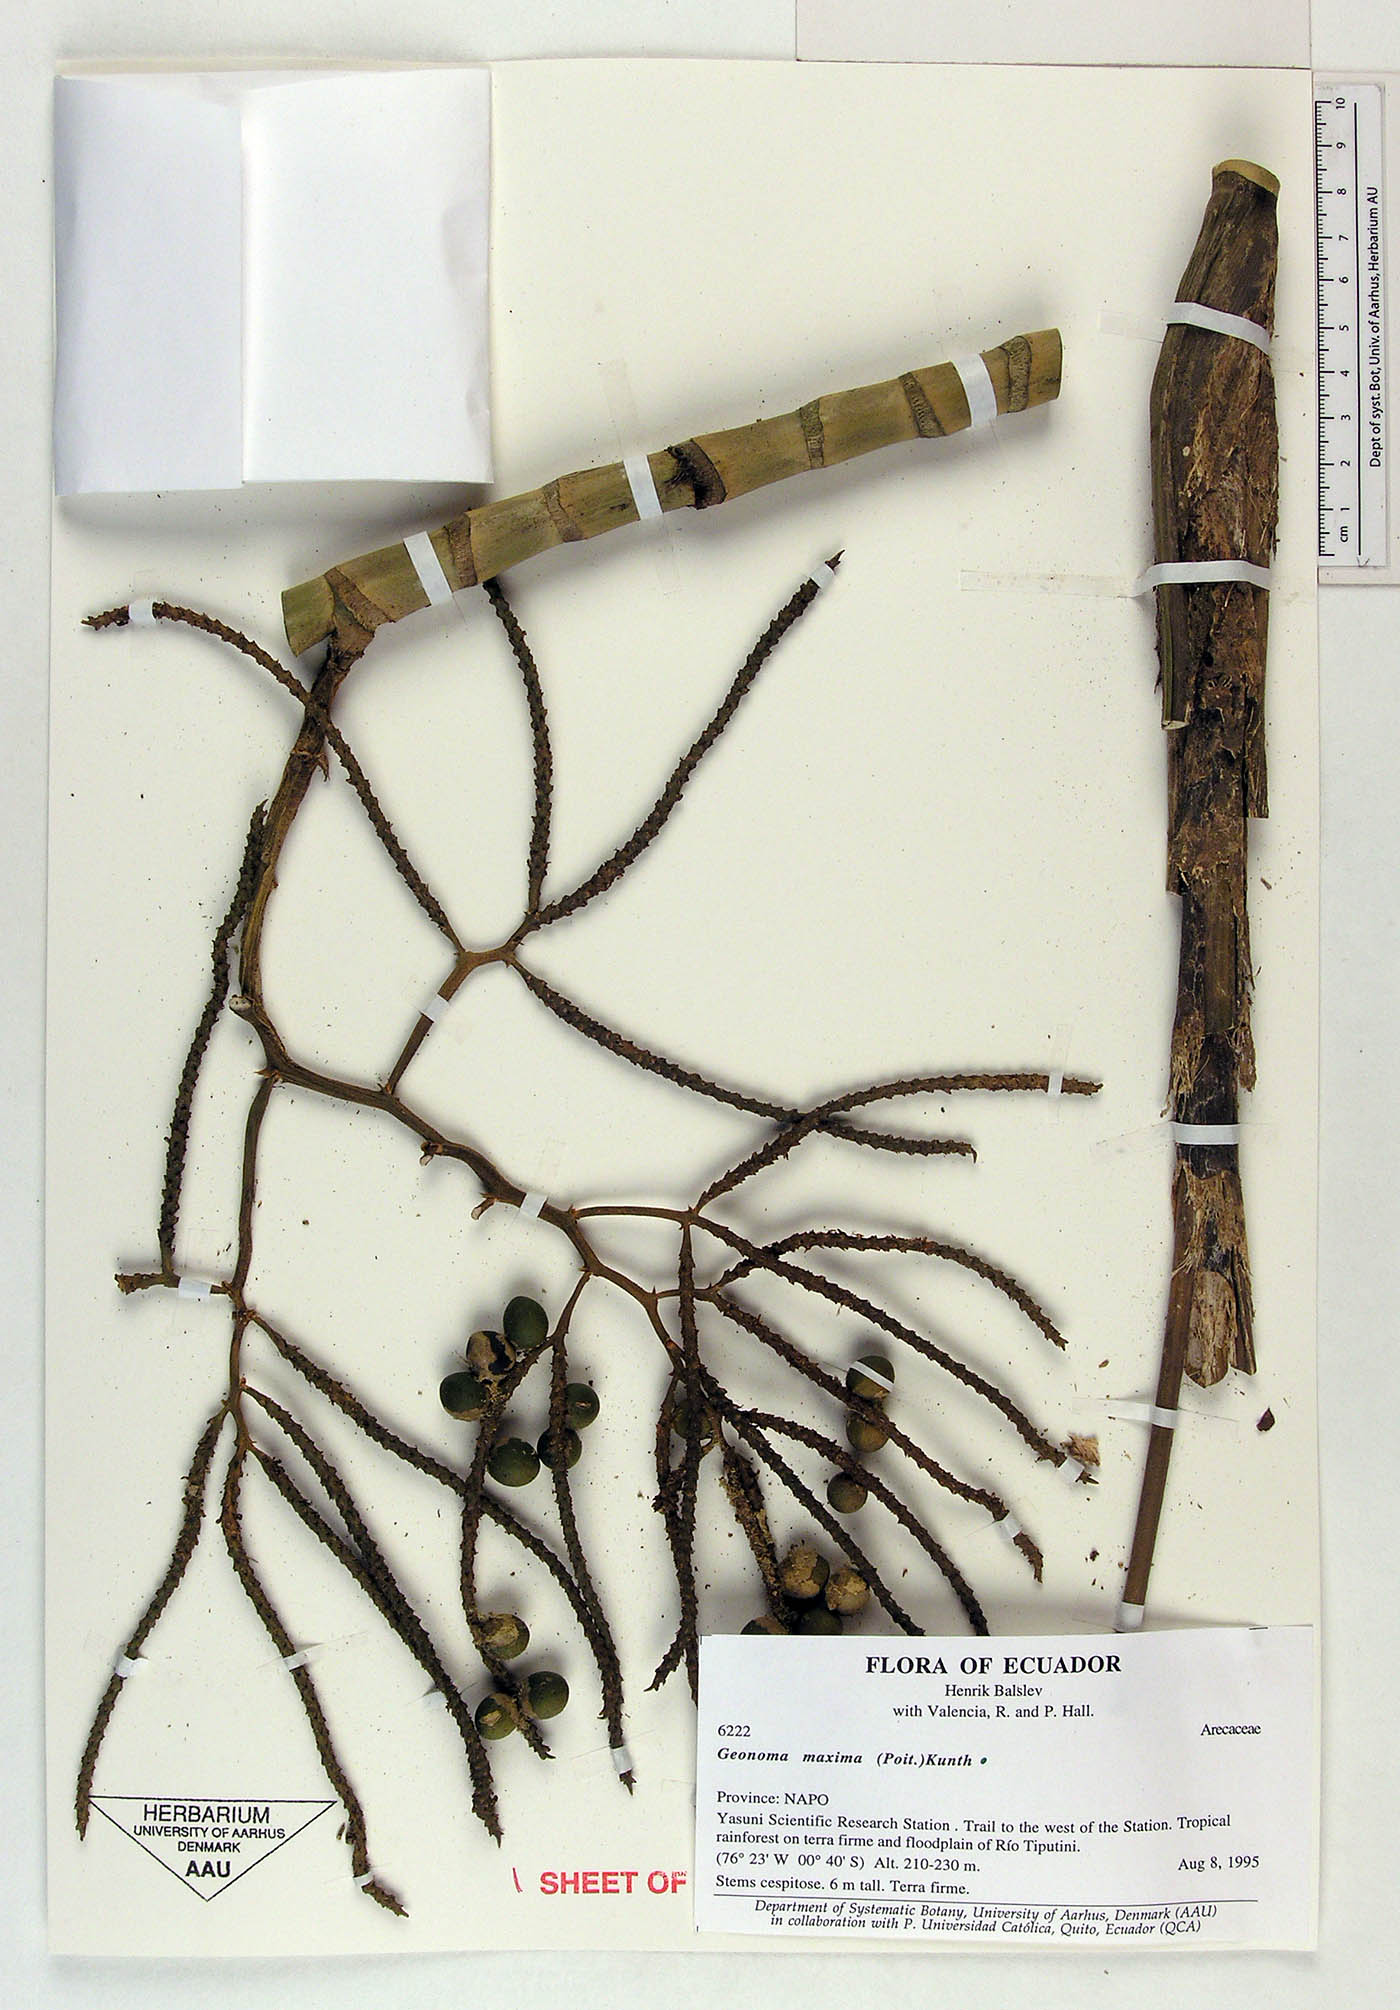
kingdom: Plantae
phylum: Tracheophyta
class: Liliopsida
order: Arecales
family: Arecaceae
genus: Geonoma
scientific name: Geonoma maxima
